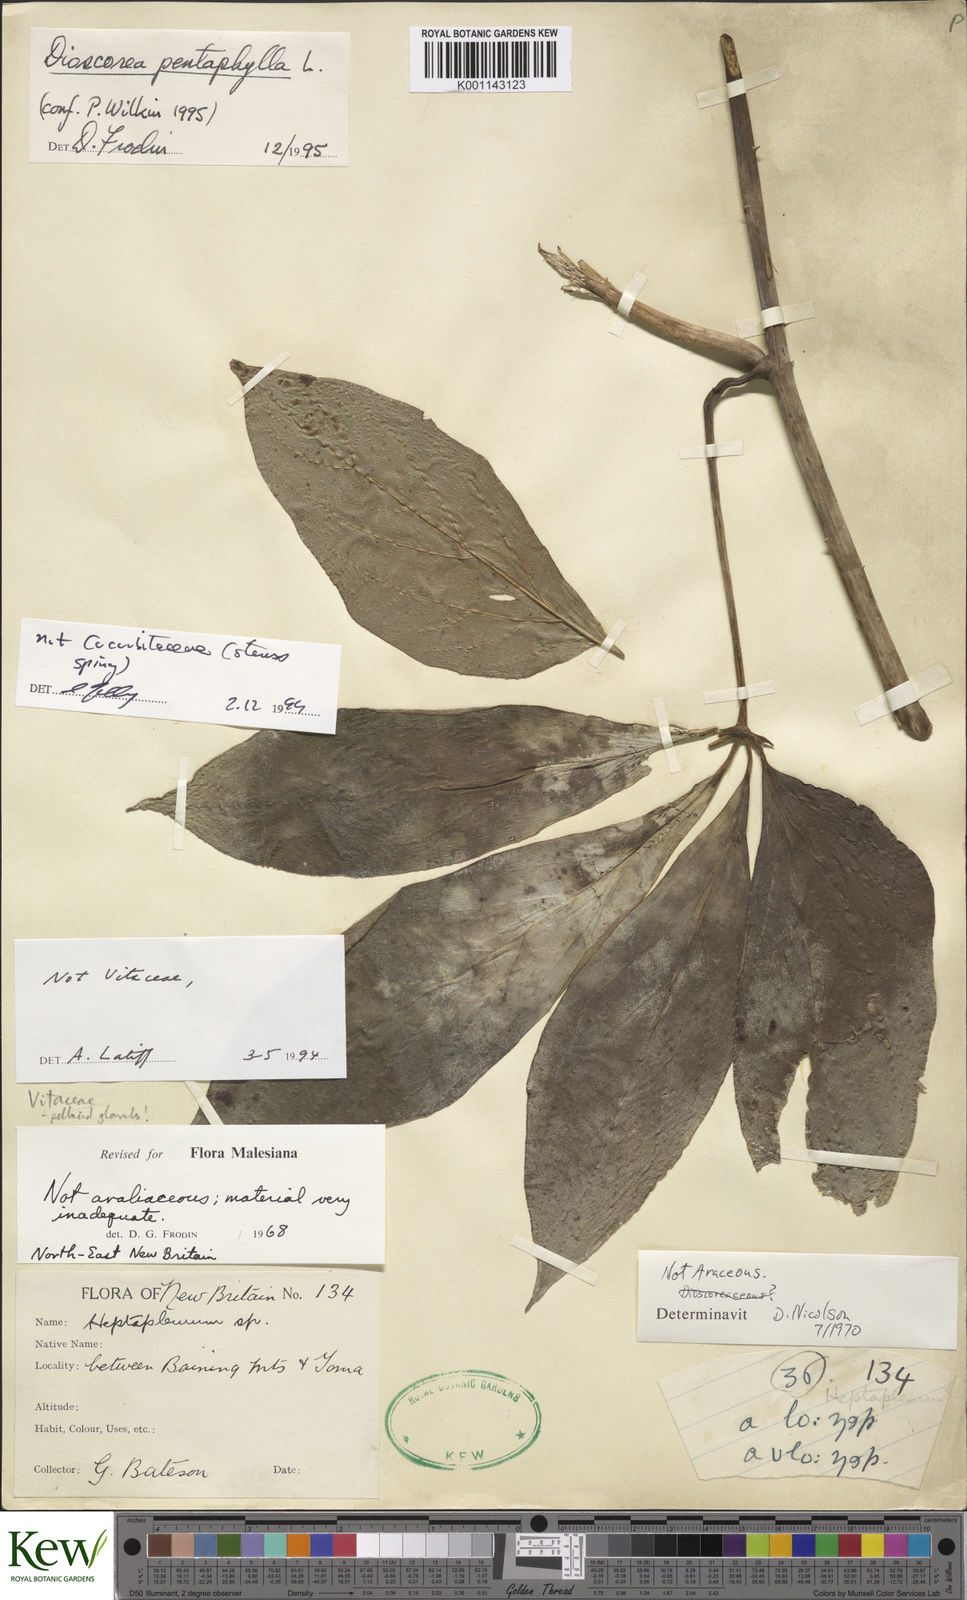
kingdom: Plantae
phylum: Tracheophyta
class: Liliopsida
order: Dioscoreales
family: Dioscoreaceae
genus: Dioscorea
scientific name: Dioscorea pentaphylla
